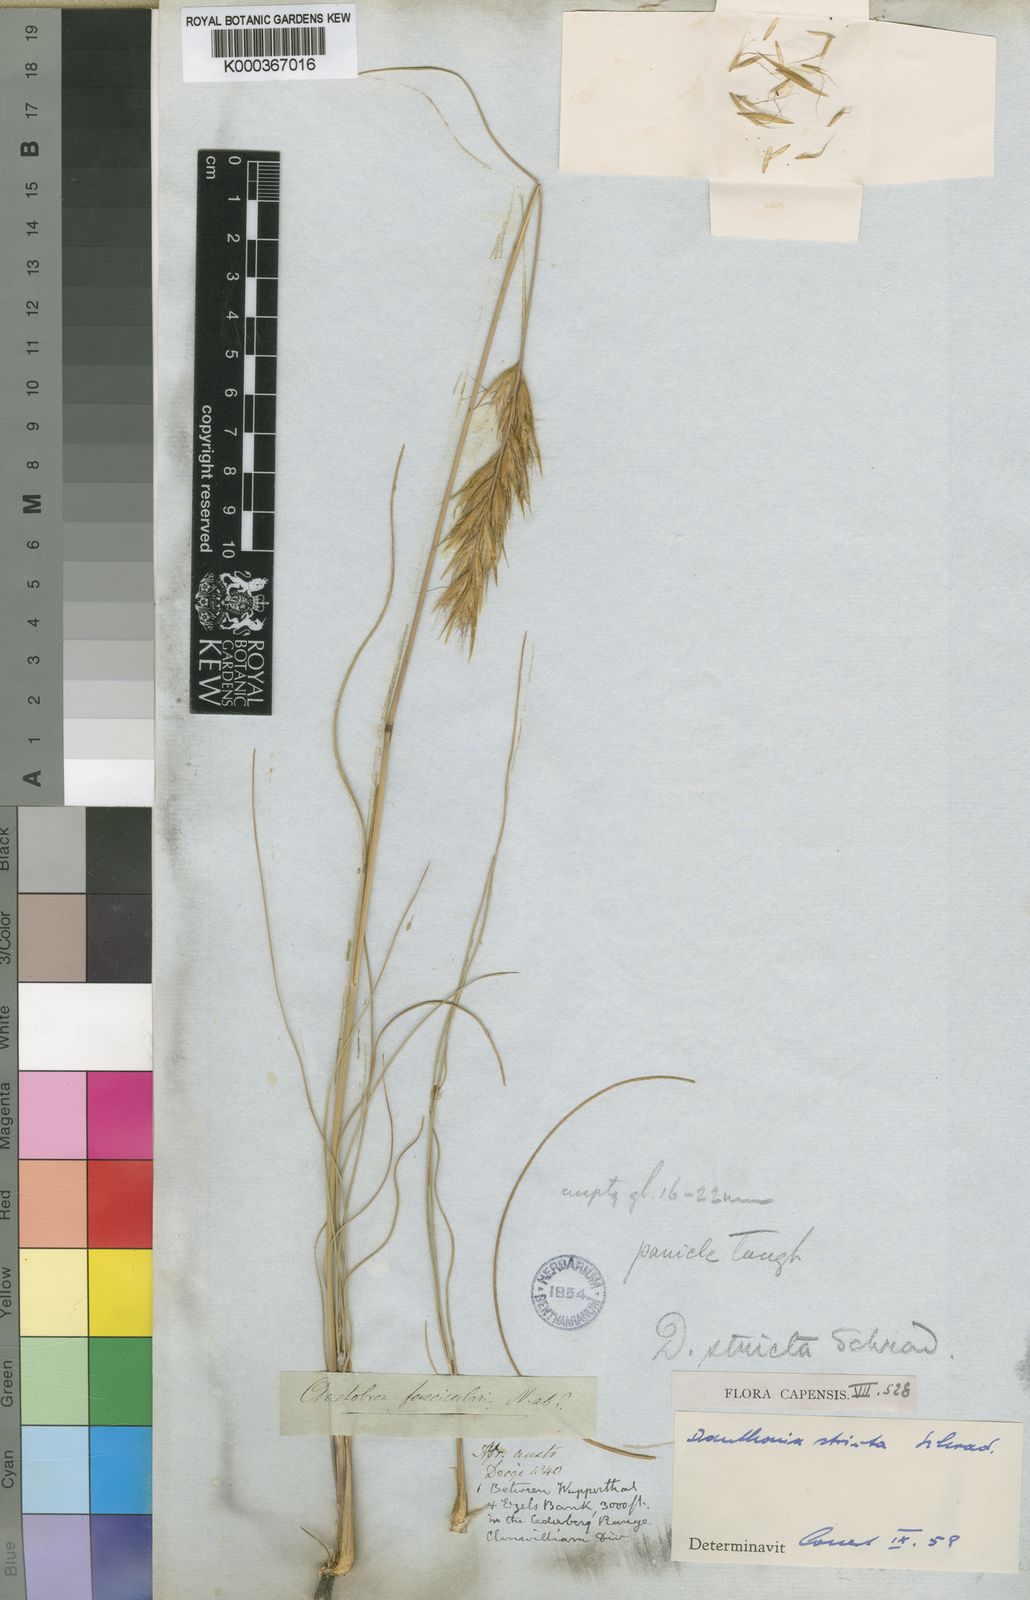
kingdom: Plantae
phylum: Tracheophyta
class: Liliopsida
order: Poales
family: Poaceae
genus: Rytidosperma
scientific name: Rytidosperma
